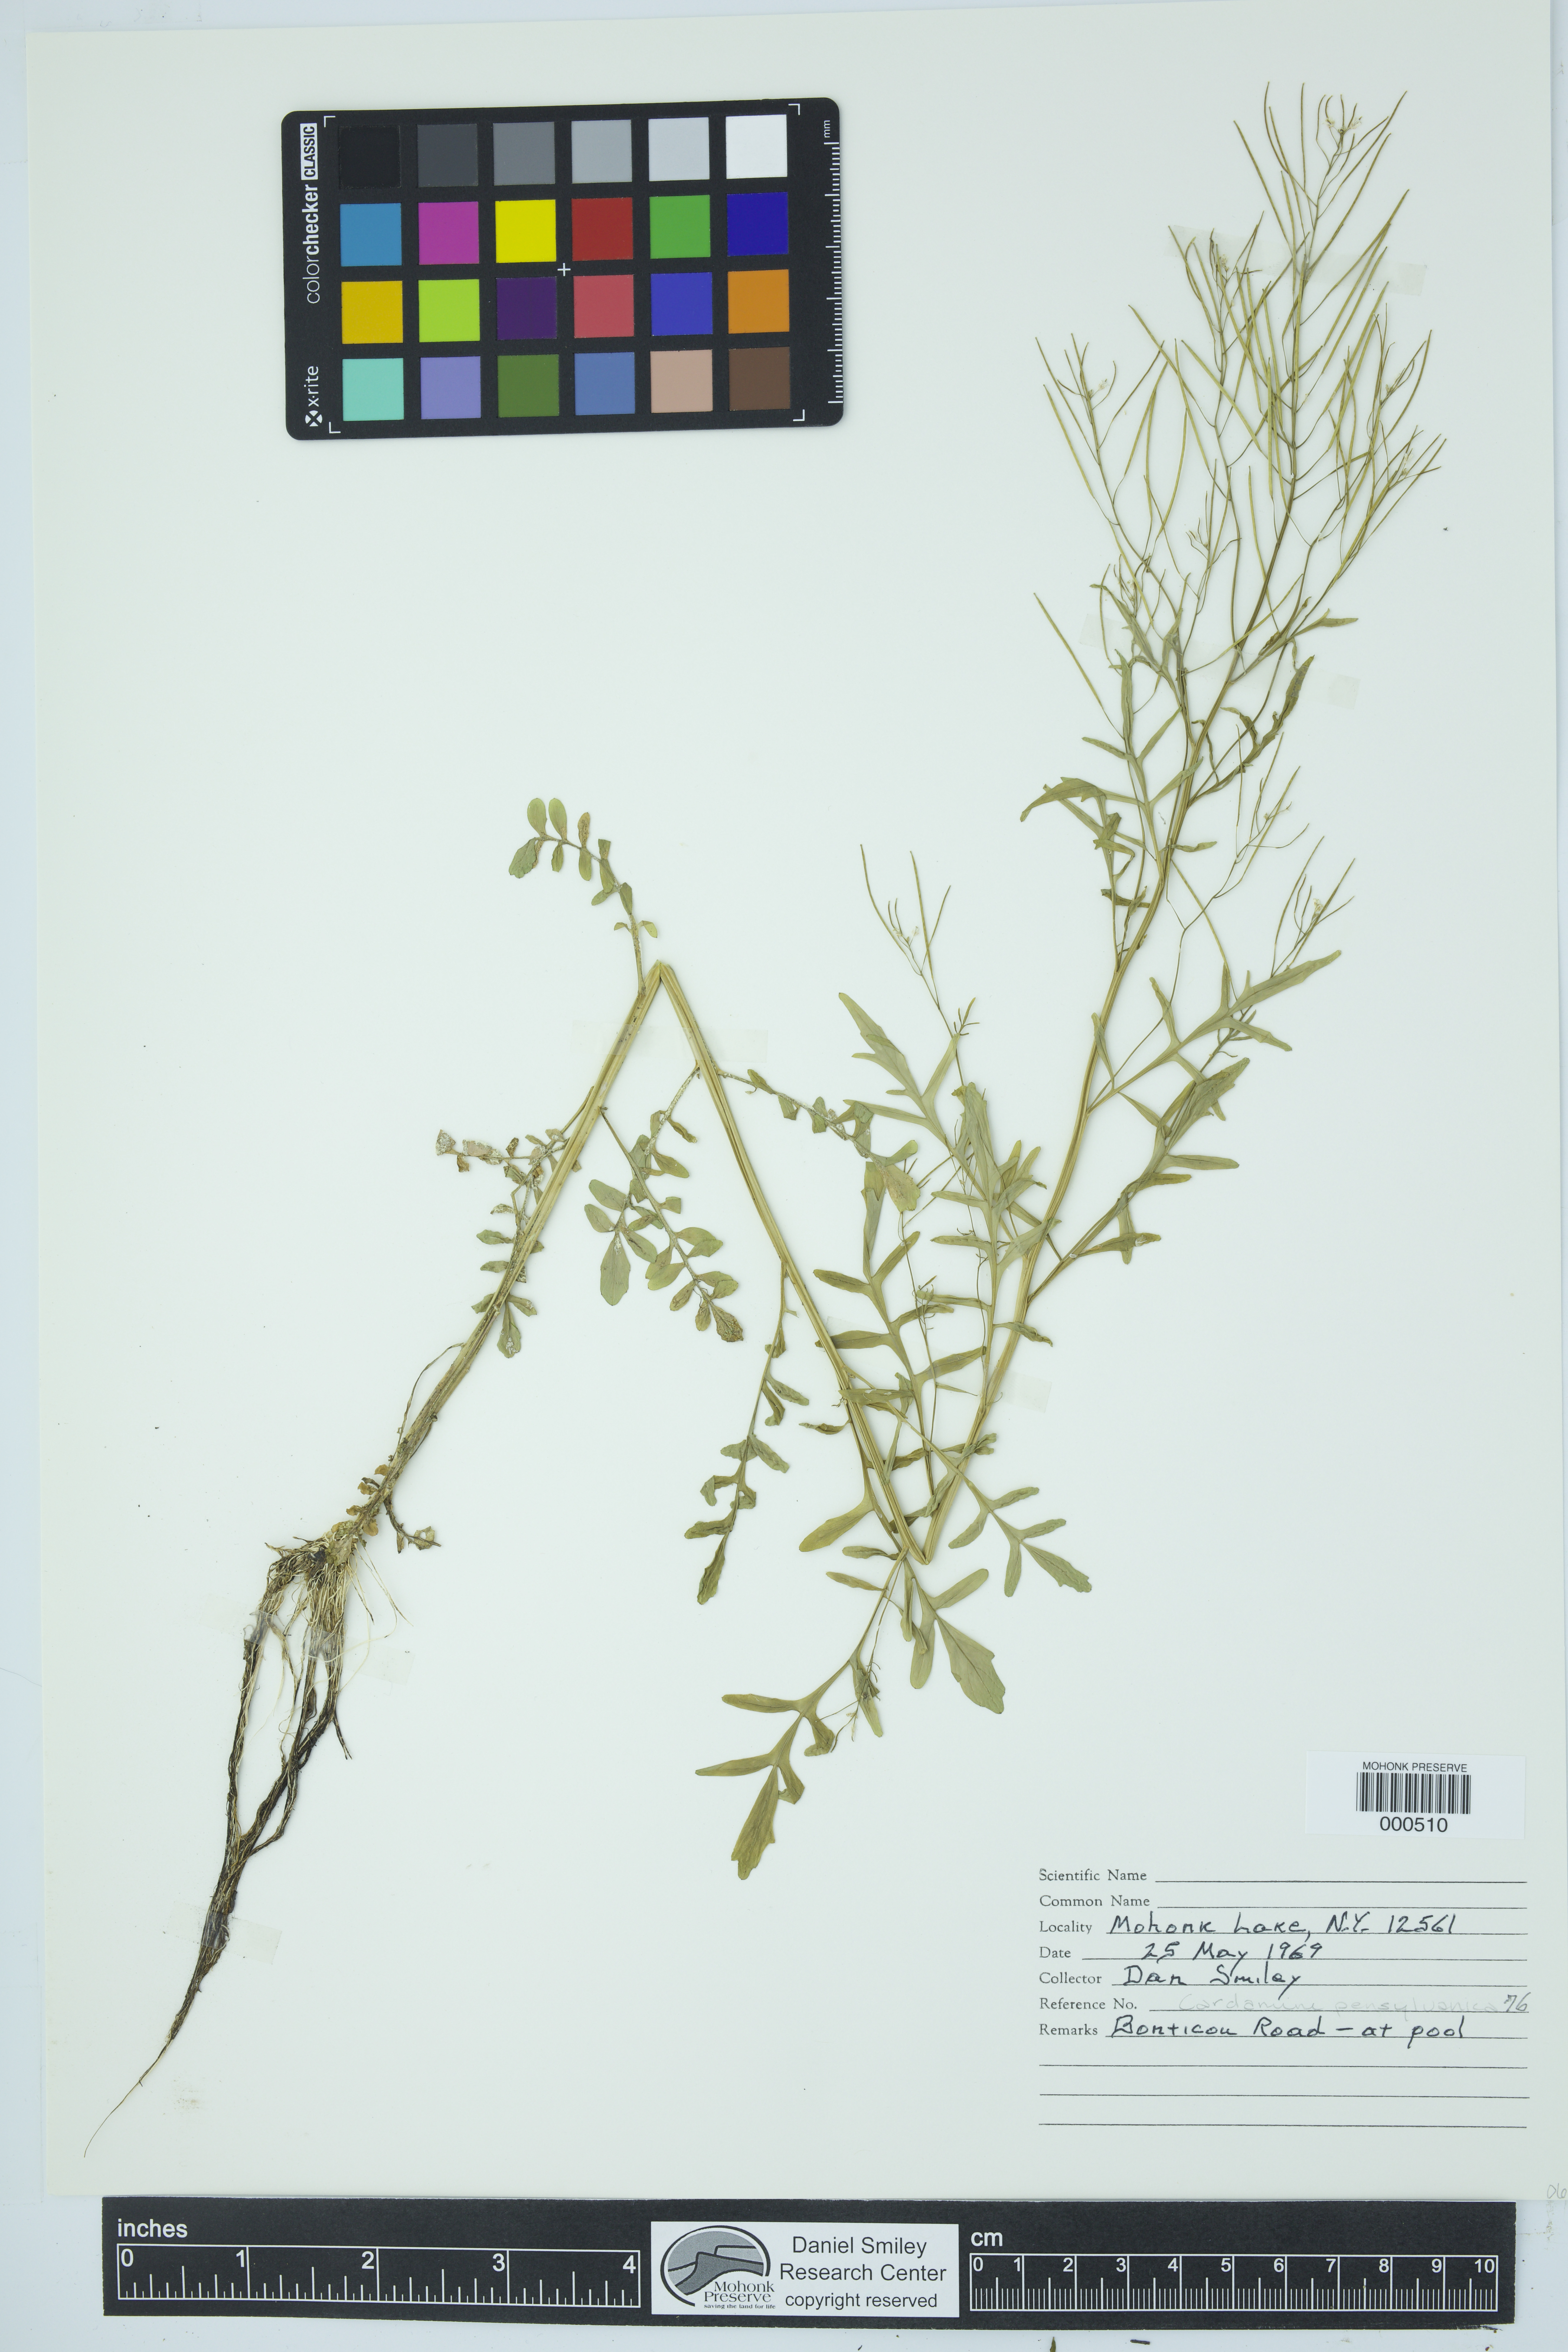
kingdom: Plantae
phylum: Tracheophyta
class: Magnoliopsida
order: Brassicales
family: Brassicaceae
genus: Cardamine
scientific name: Cardamine pensylvanica
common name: Pennsylvania bittercress
